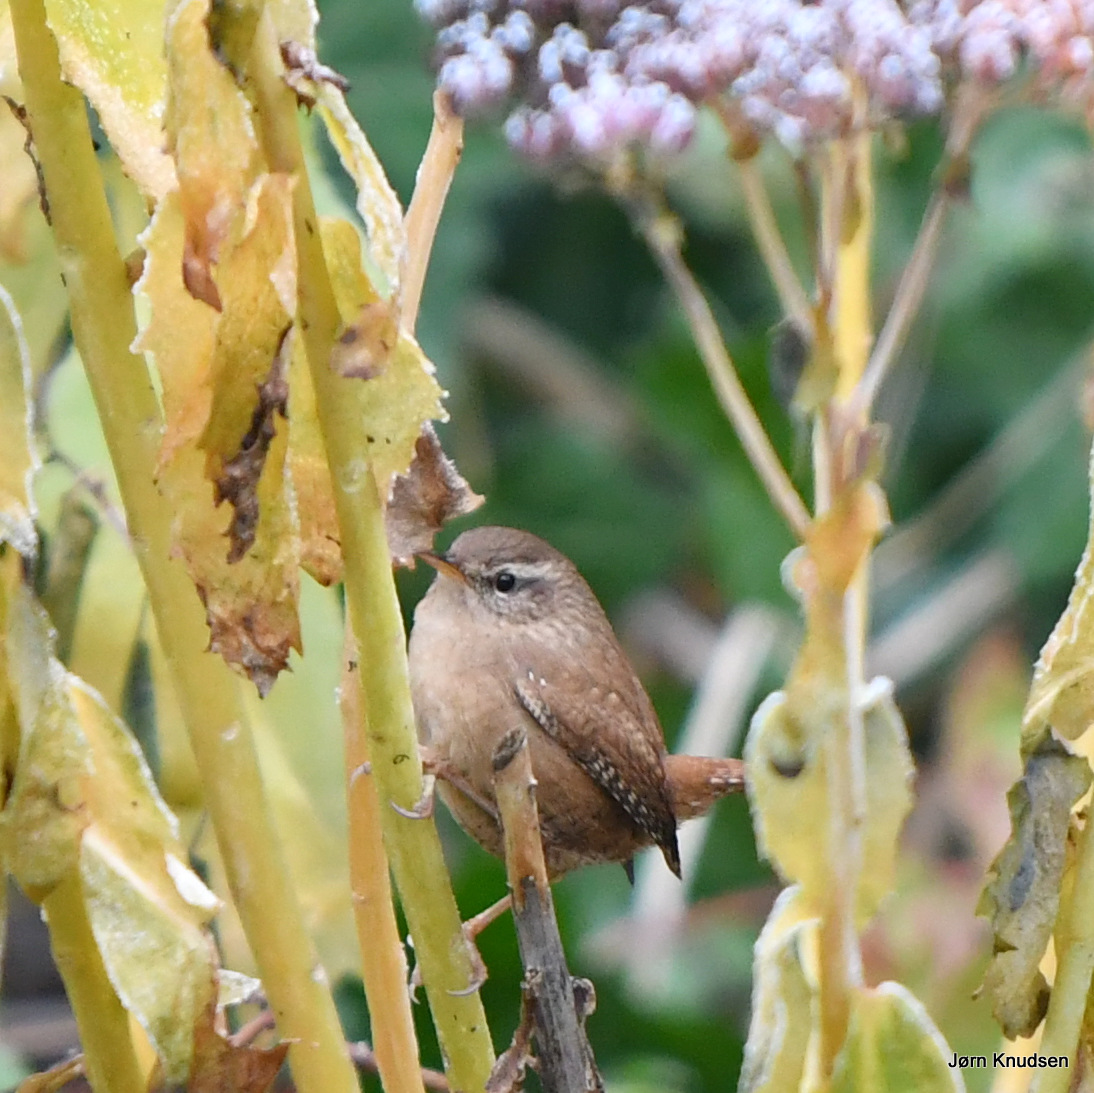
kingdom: Animalia
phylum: Chordata
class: Aves
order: Passeriformes
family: Troglodytidae
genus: Troglodytes
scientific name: Troglodytes troglodytes
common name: Gærdesmutte
